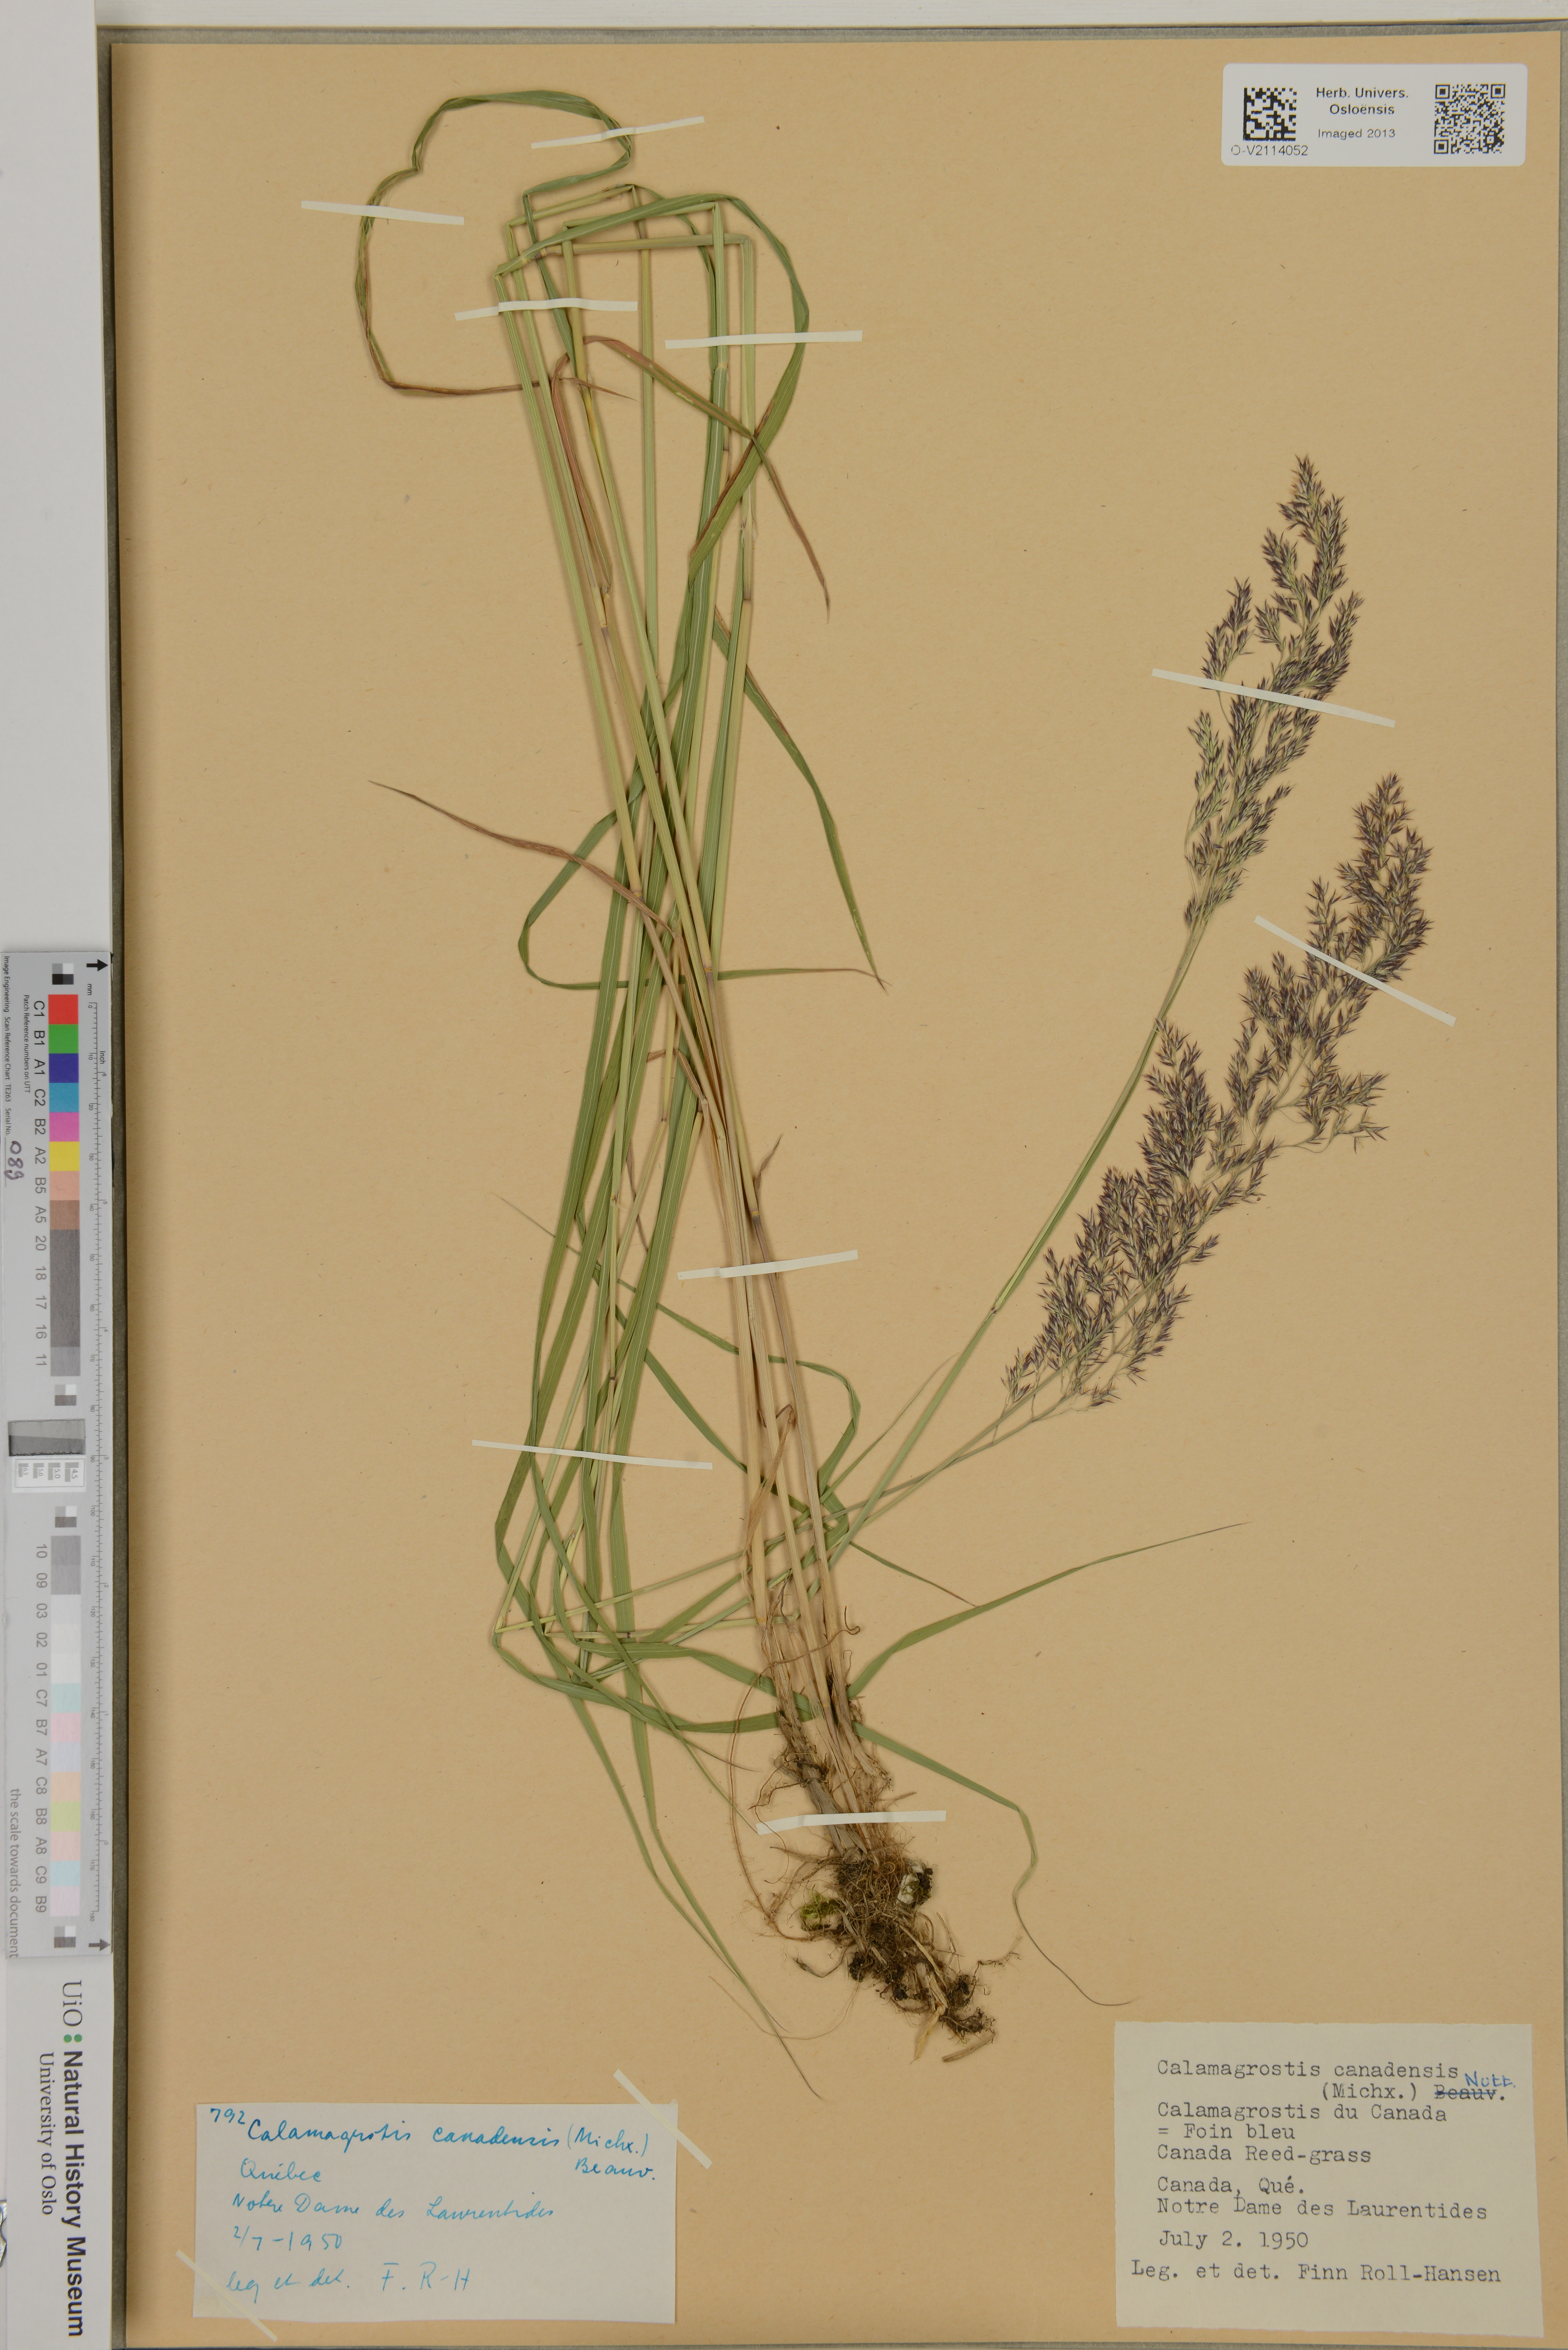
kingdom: Plantae
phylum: Tracheophyta
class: Liliopsida
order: Poales
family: Poaceae
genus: Calamagrostis
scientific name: Calamagrostis canadensis
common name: Canada bluejoint
